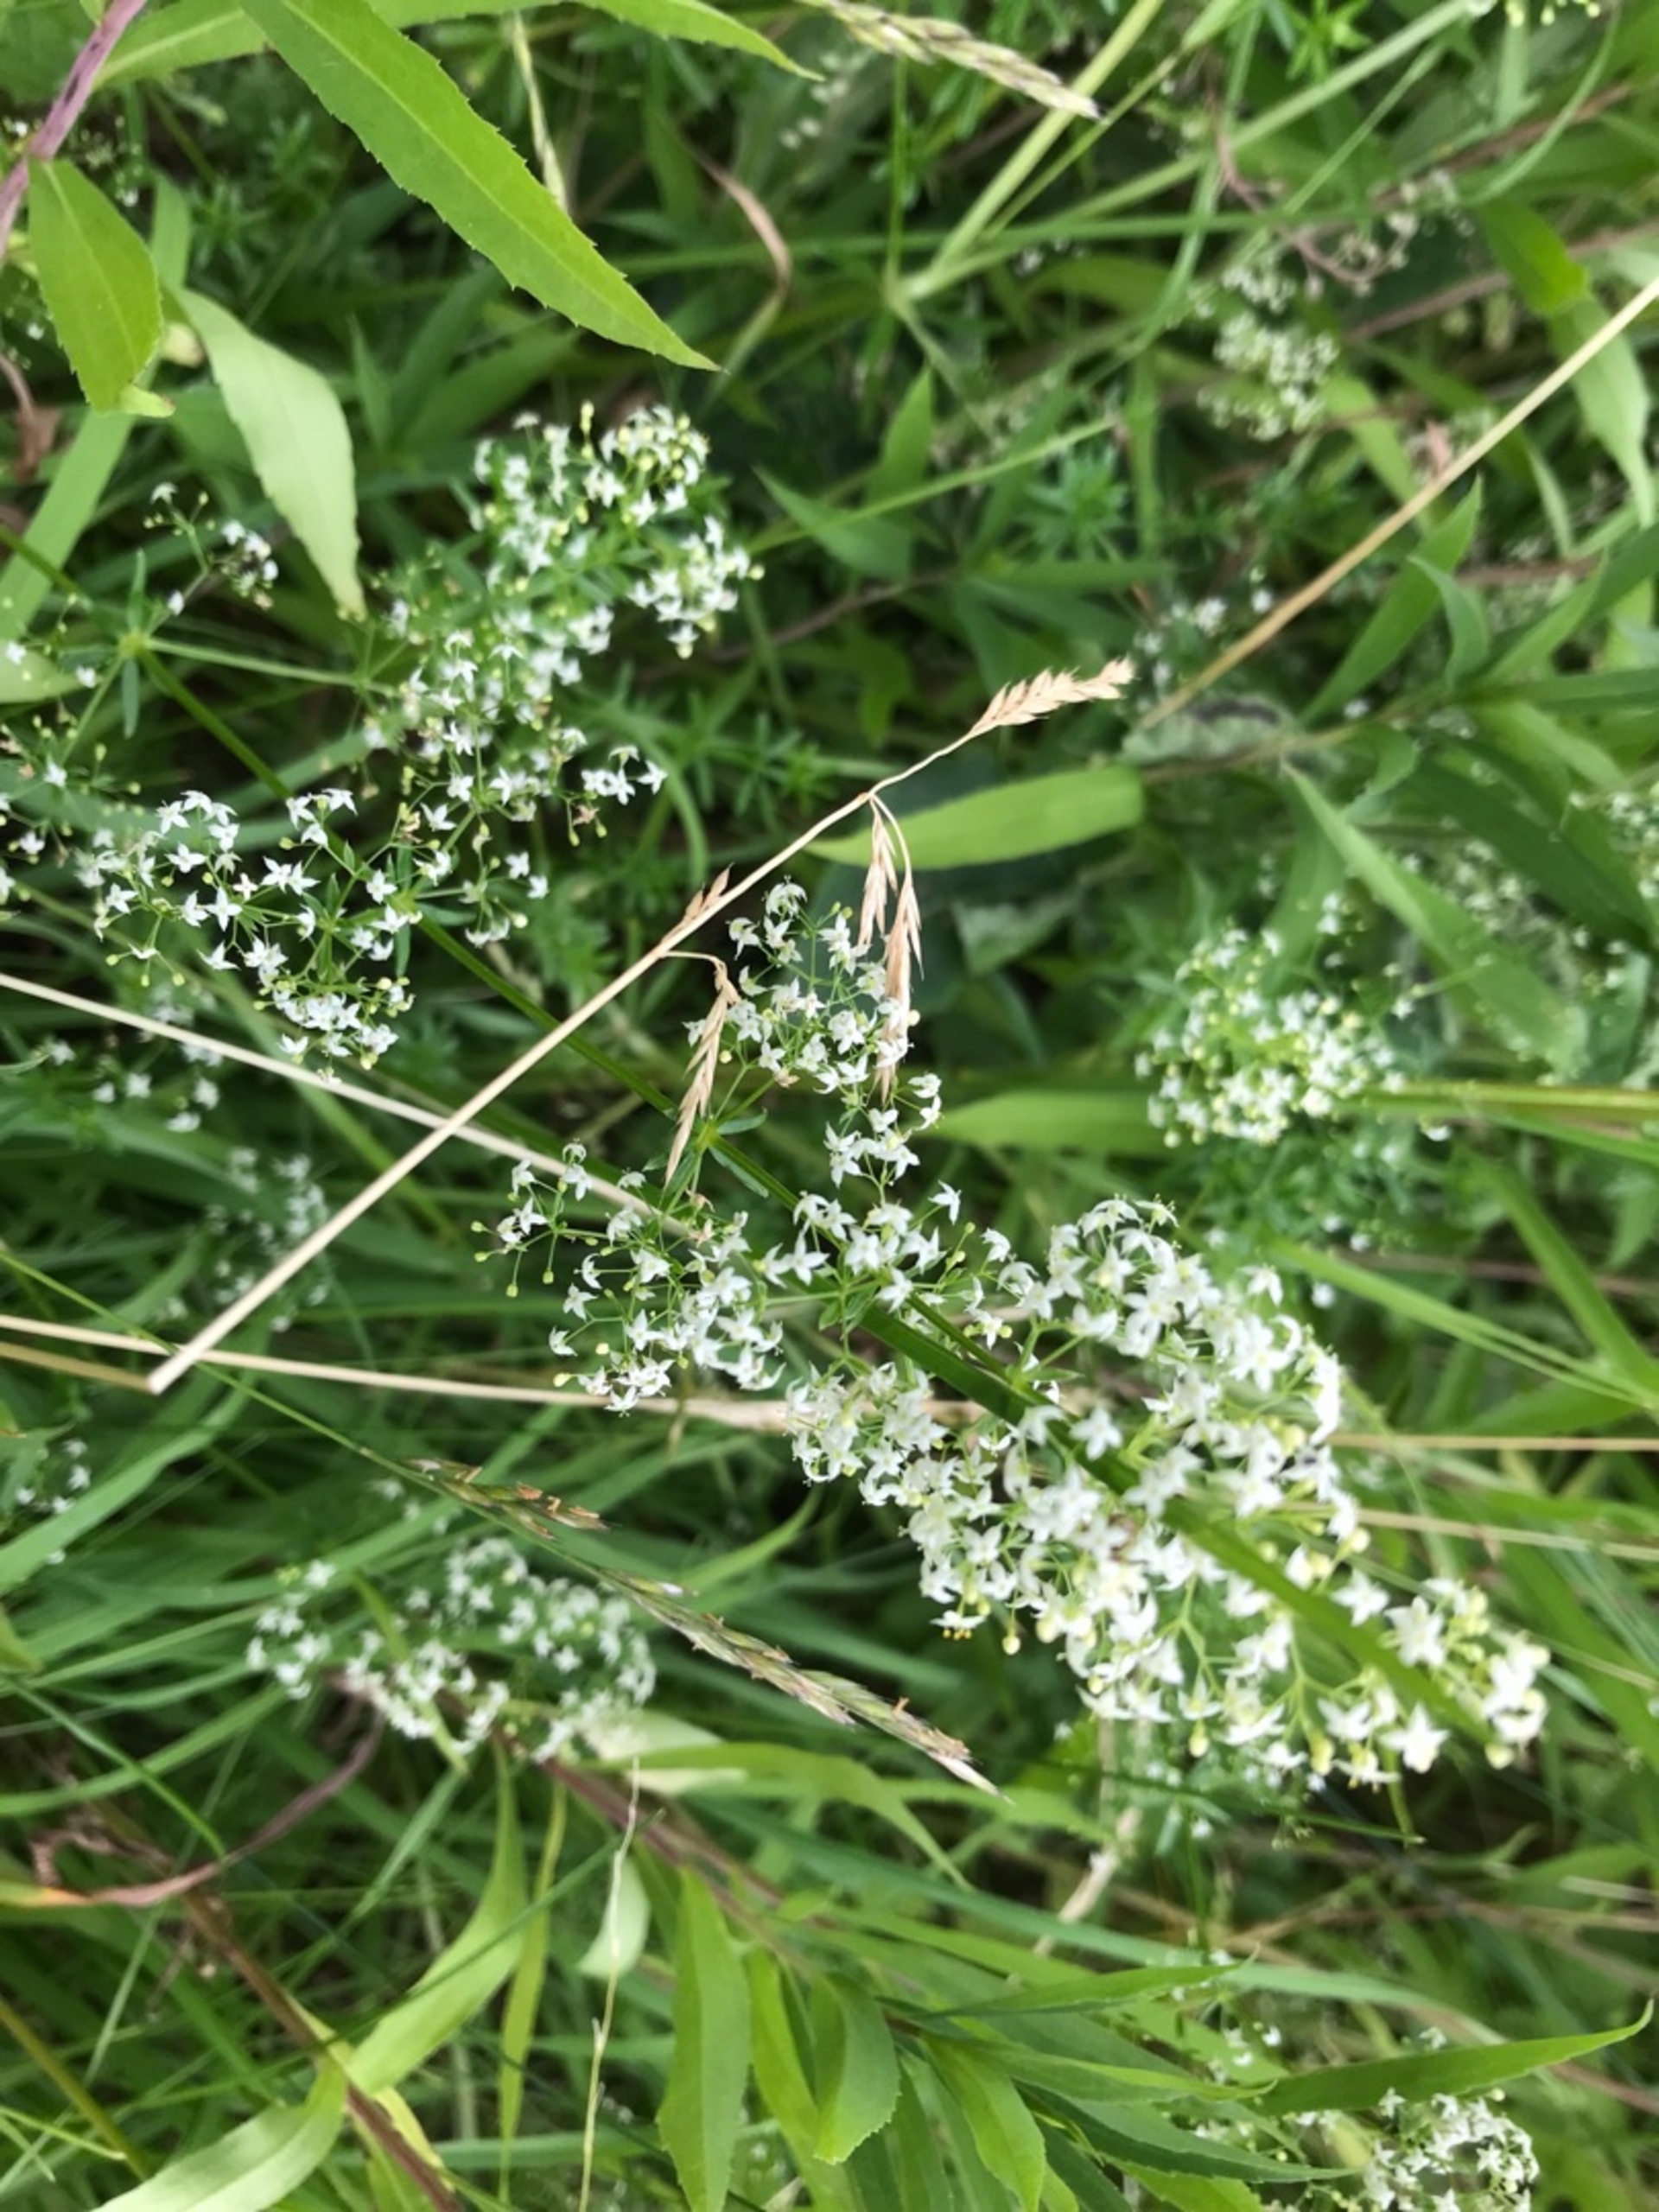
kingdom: Plantae
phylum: Tracheophyta
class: Magnoliopsida
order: Gentianales
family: Rubiaceae
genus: Galium
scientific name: Galium mollugo
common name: Hvid snerre
